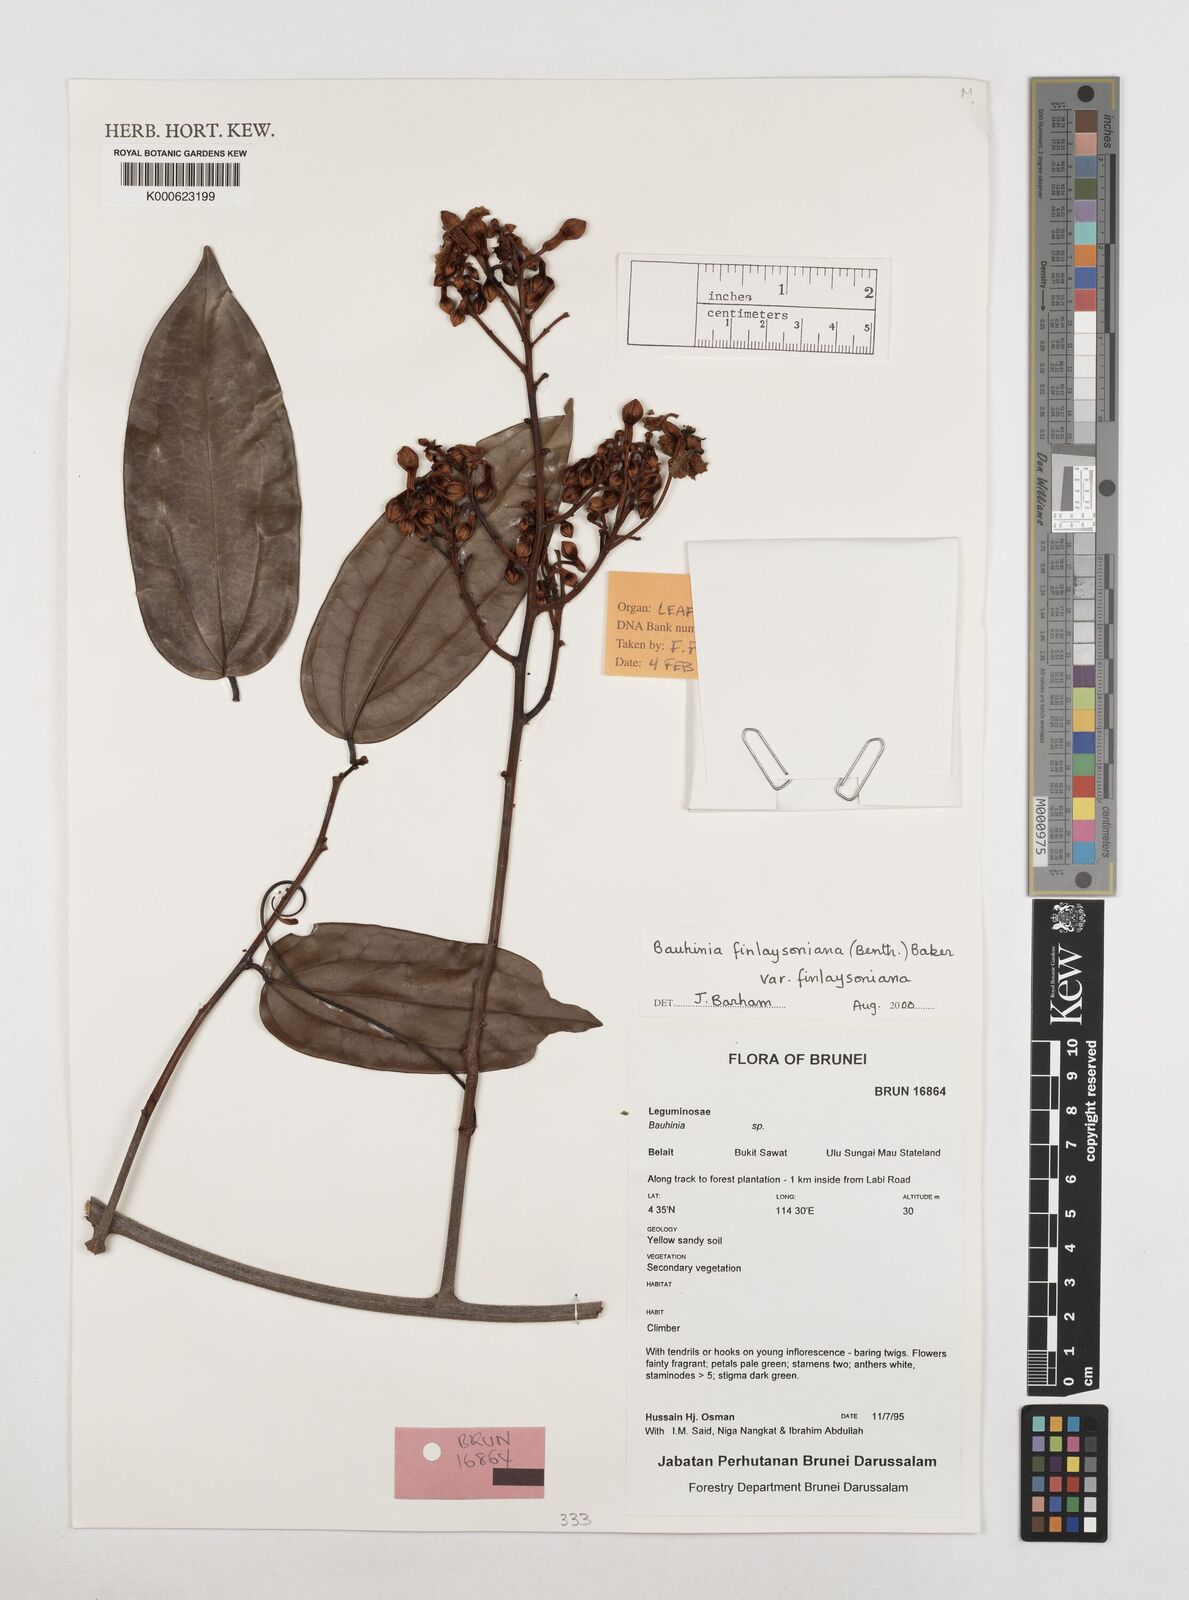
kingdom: Plantae
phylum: Tracheophyta
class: Magnoliopsida
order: Fabales
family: Fabaceae
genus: Bauhinia
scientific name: Bauhinia
